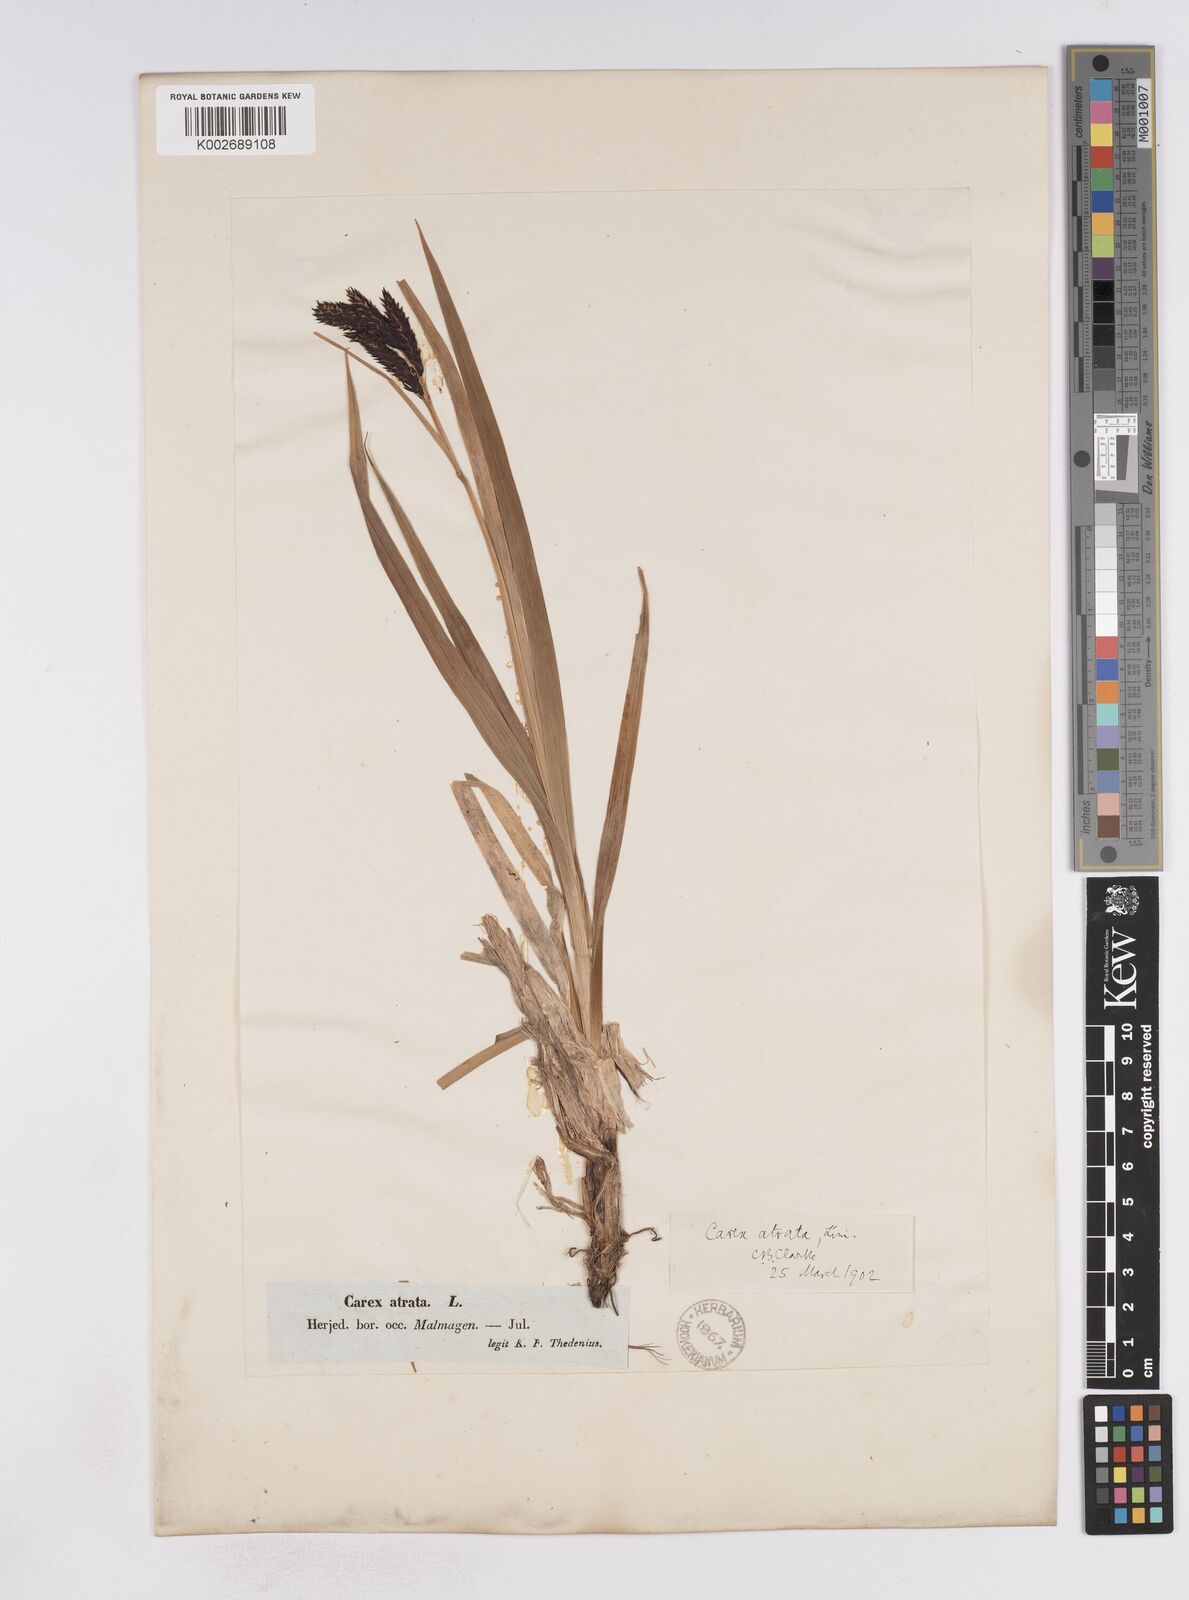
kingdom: Plantae
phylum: Tracheophyta
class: Liliopsida
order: Poales
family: Cyperaceae
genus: Carex
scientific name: Carex atrata
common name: Black alpine sedge
